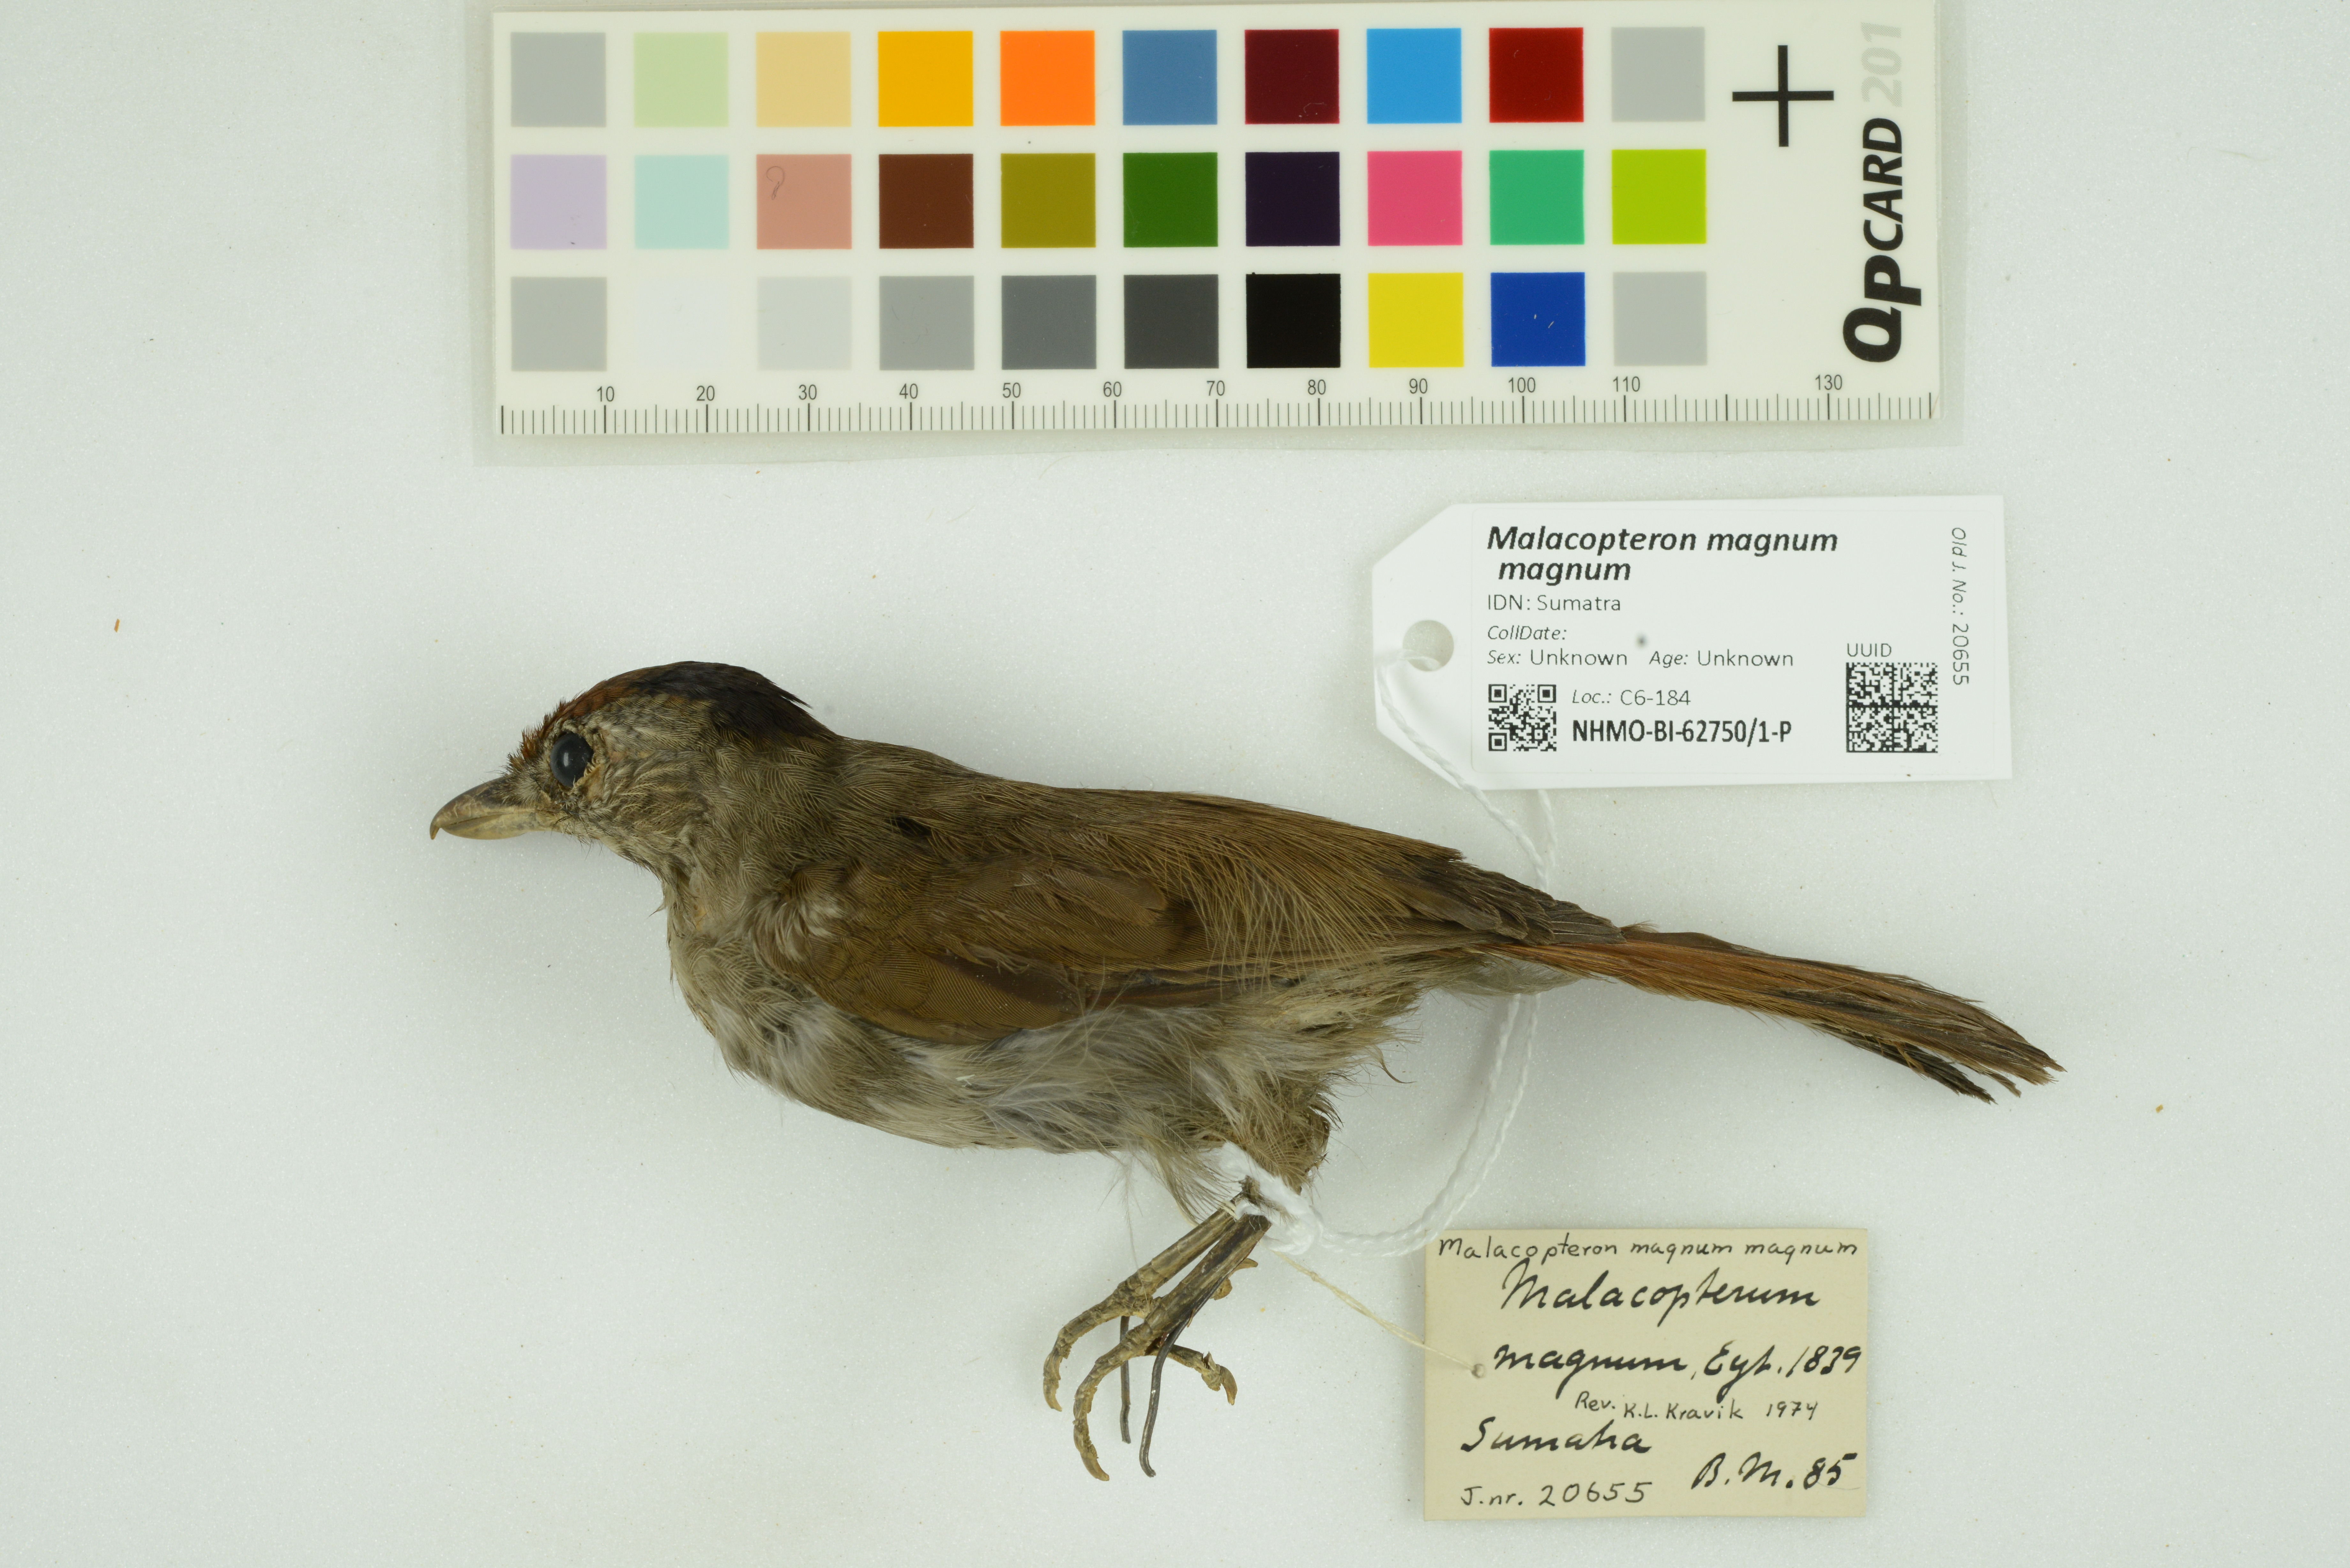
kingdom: Animalia
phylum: Chordata
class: Aves
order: Passeriformes
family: Pellorneidae
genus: Malacopteron
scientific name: Malacopteron magnum
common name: Rufous-crowned babbler
